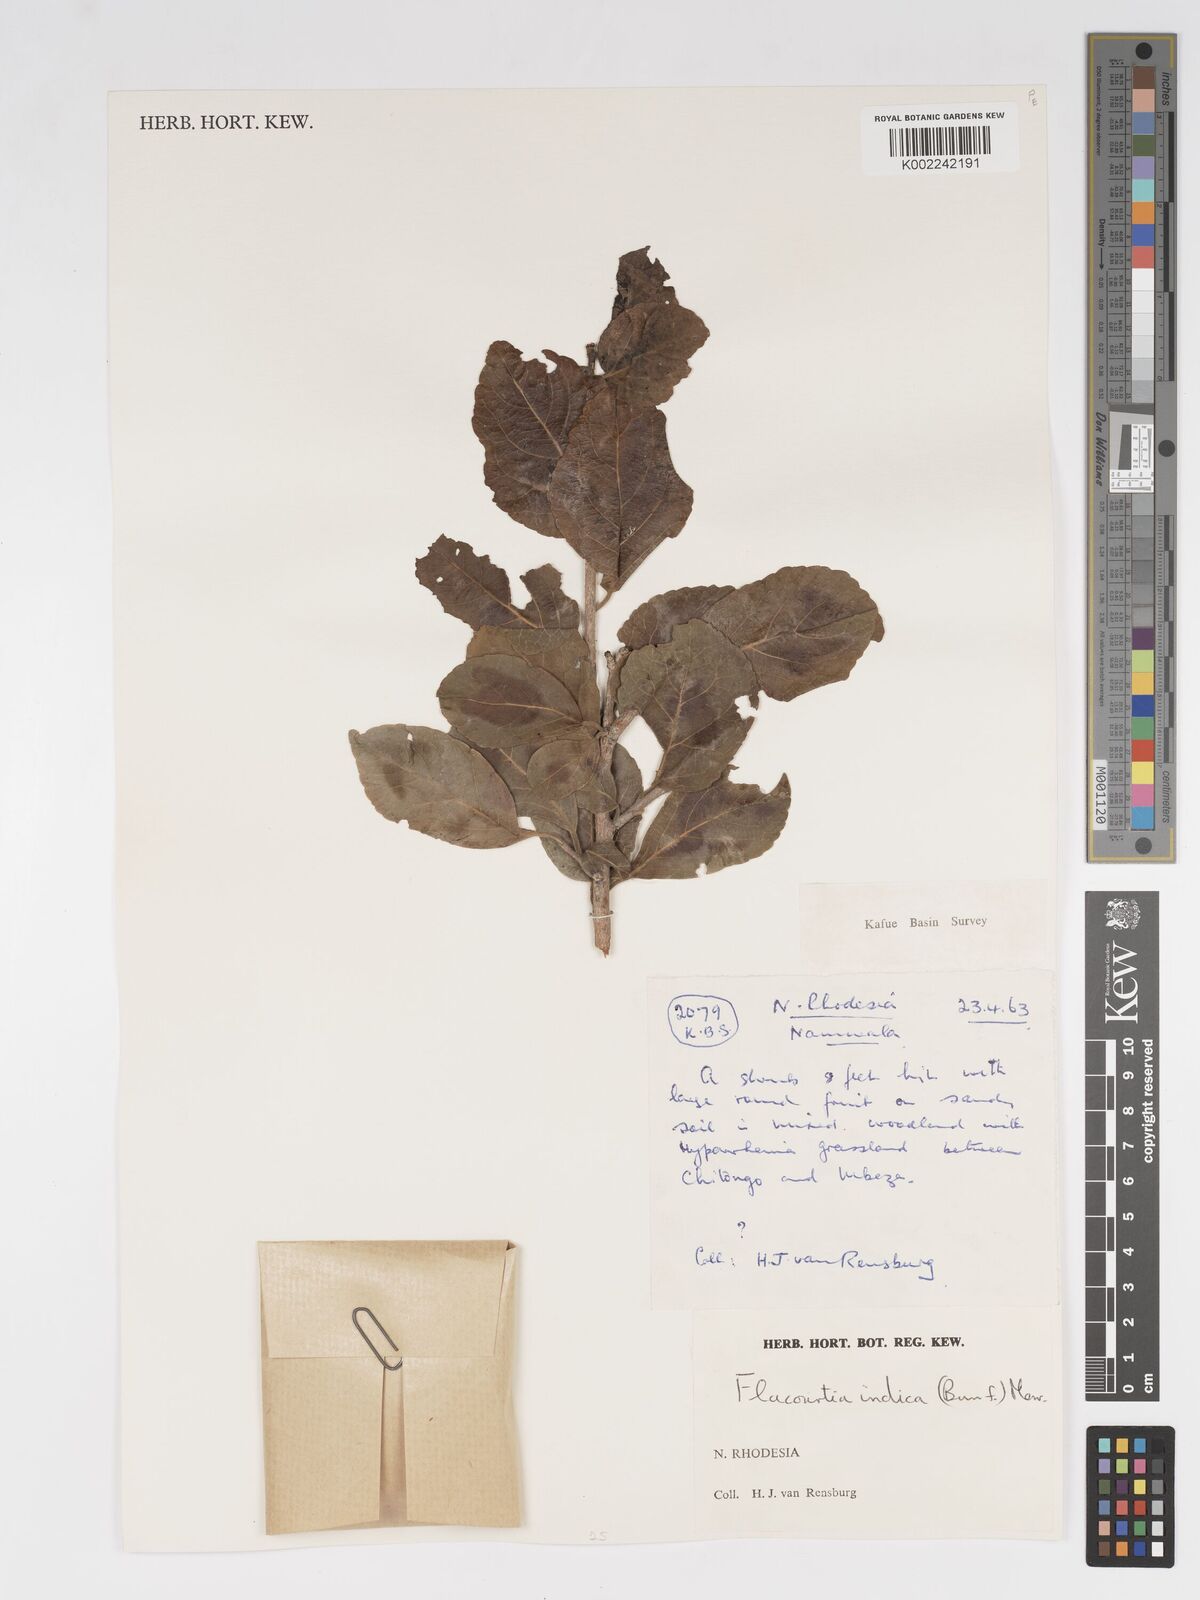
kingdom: Plantae
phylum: Tracheophyta
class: Magnoliopsida
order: Malpighiales
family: Salicaceae
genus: Flacourtia
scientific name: Flacourtia indica
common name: Governor's plum
